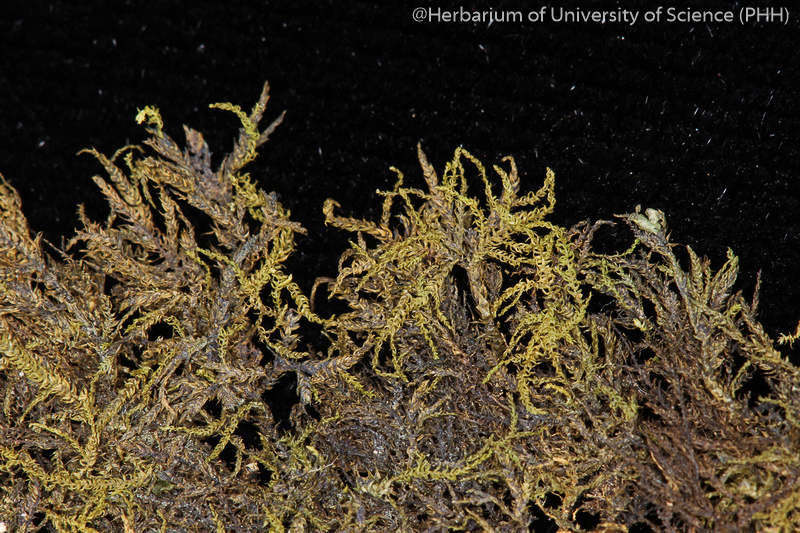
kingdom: Plantae
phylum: Bryophyta
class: Bryopsida
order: Hypnales
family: Brachytheciaceae
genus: Claopodium
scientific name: Claopodium aciculum
